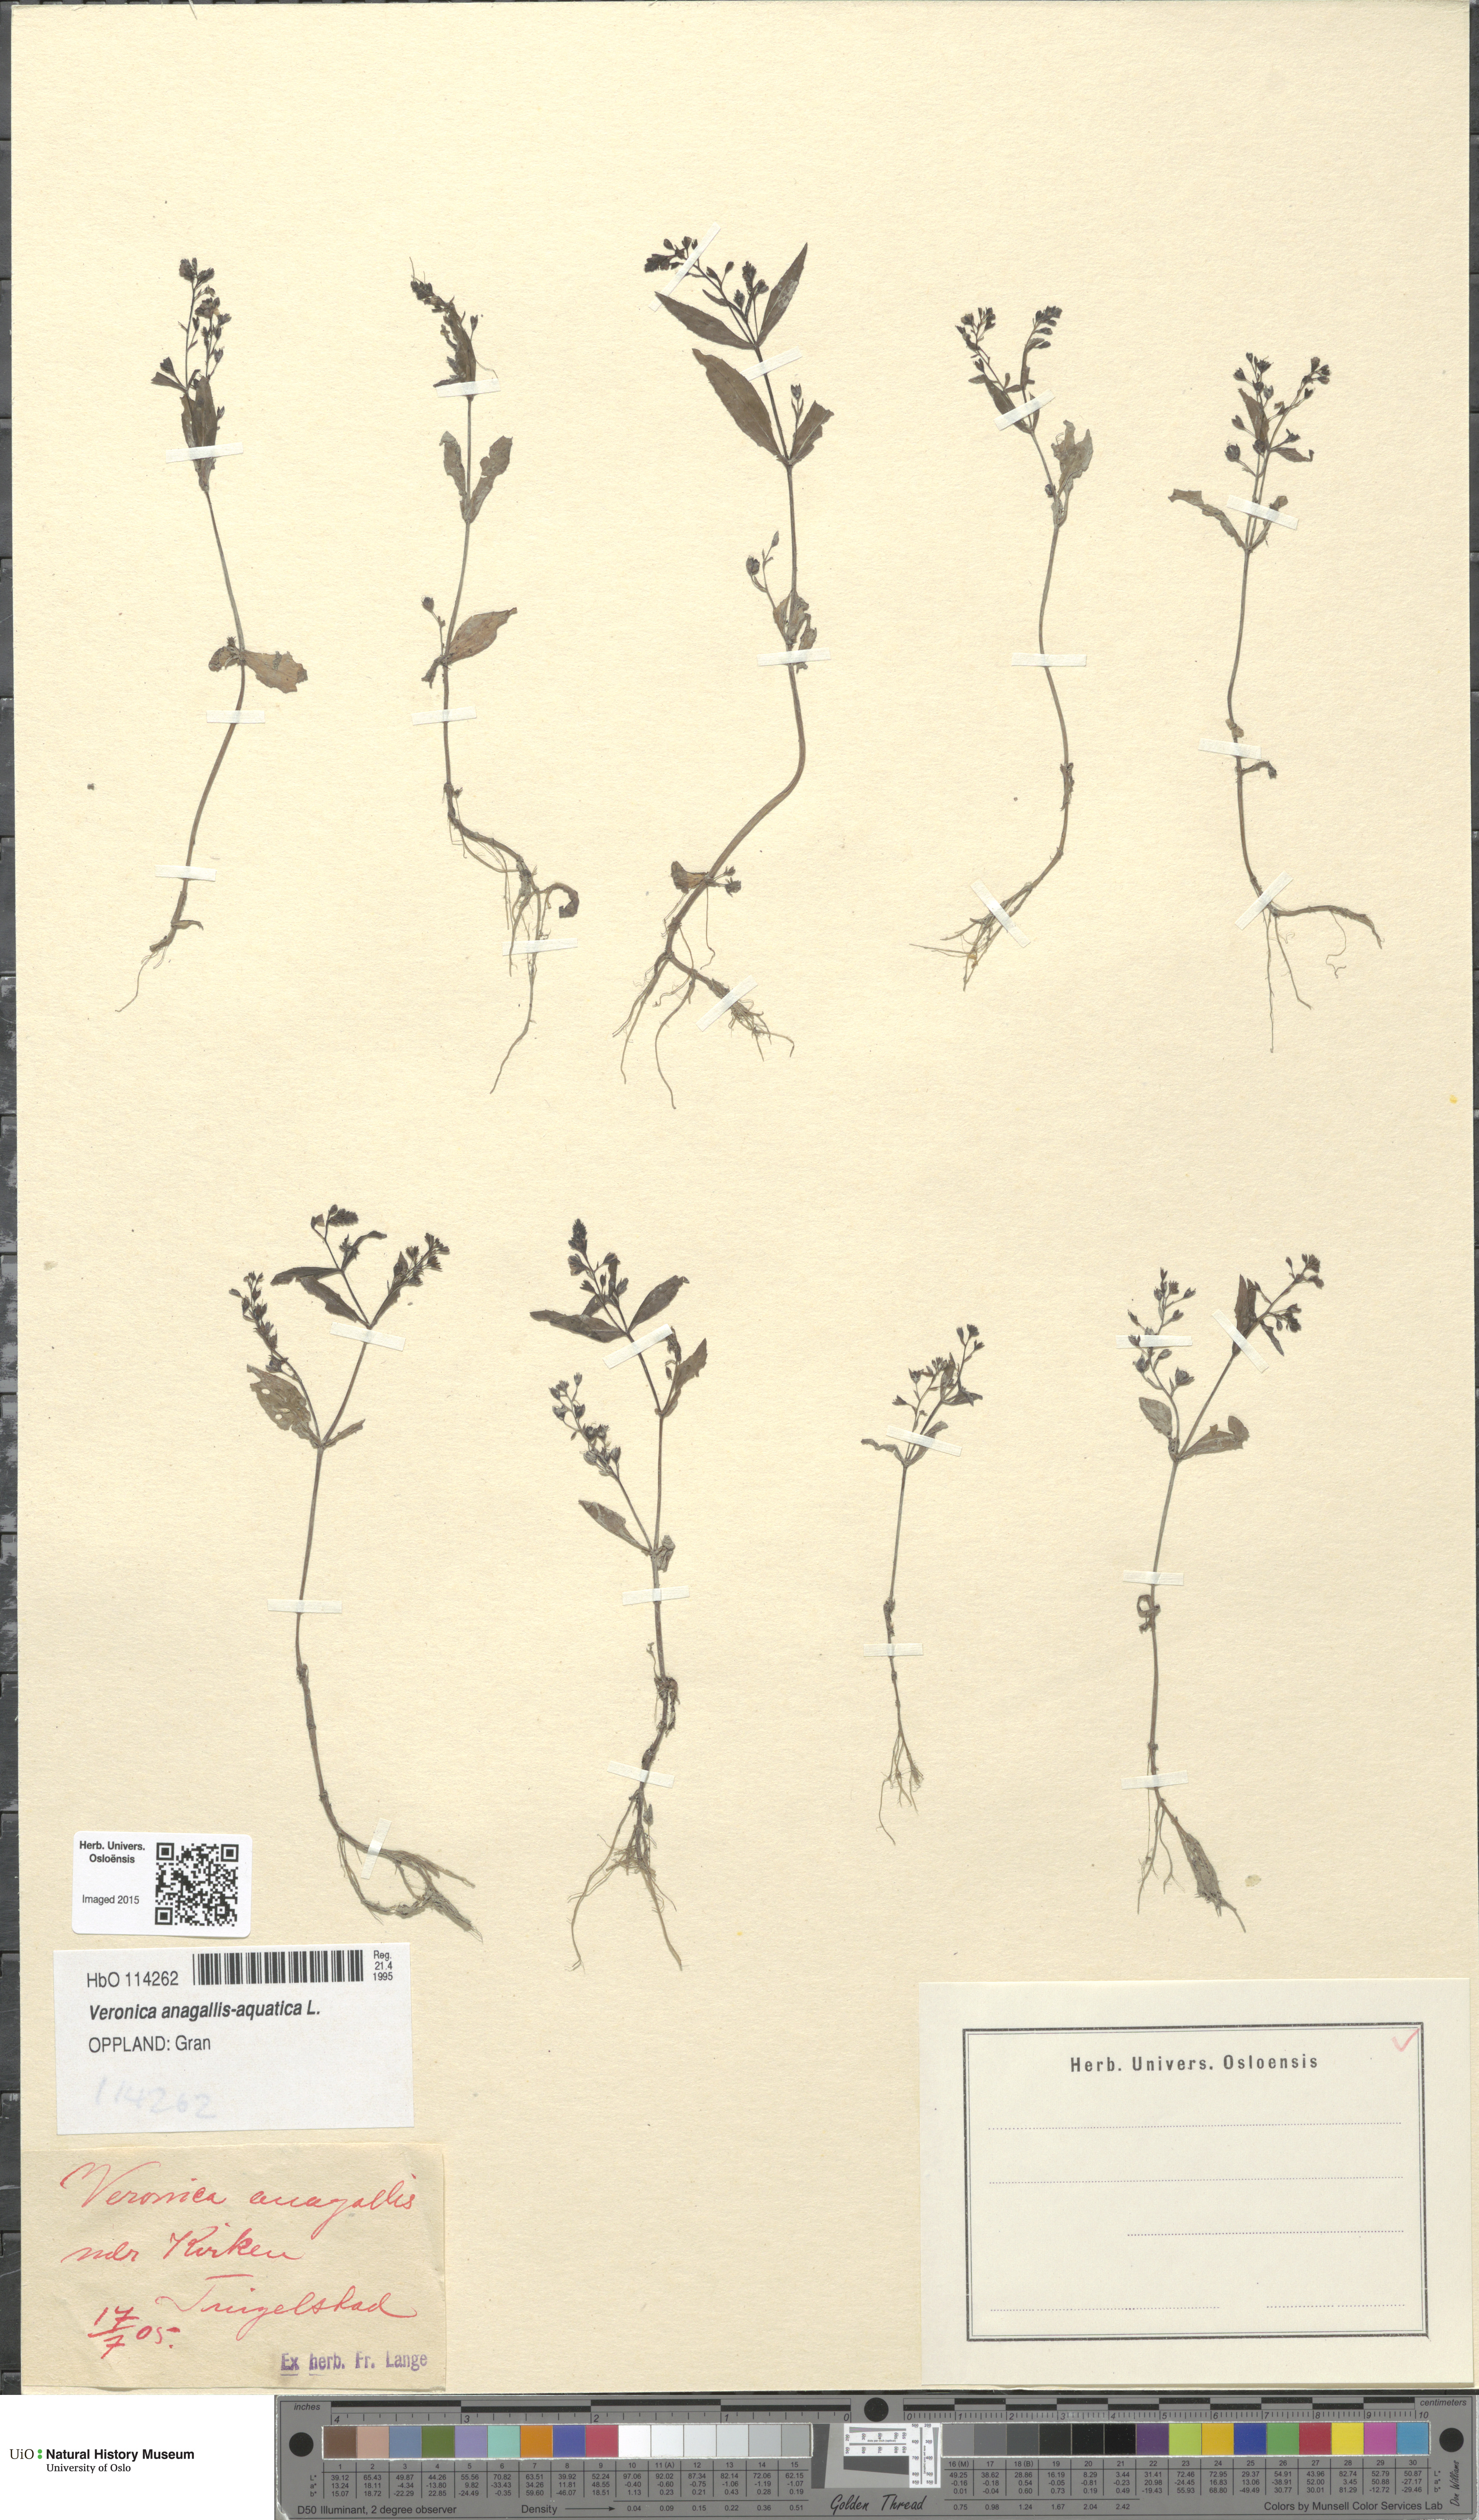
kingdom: Plantae
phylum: Tracheophyta
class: Magnoliopsida
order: Lamiales
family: Plantaginaceae
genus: Veronica
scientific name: Veronica anagallis-aquatica
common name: Water speedwell
